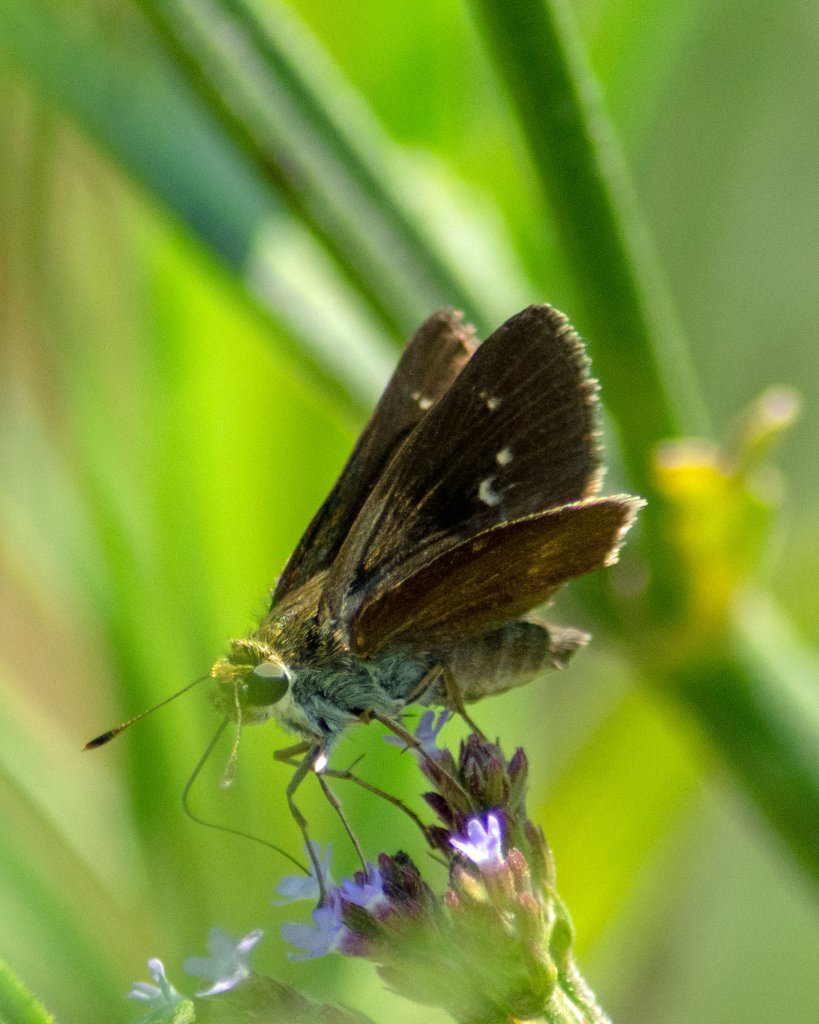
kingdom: Animalia
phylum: Arthropoda
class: Insecta
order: Lepidoptera
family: Hesperiidae
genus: Euphyes
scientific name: Euphyes vestris
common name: Dun Skipper
